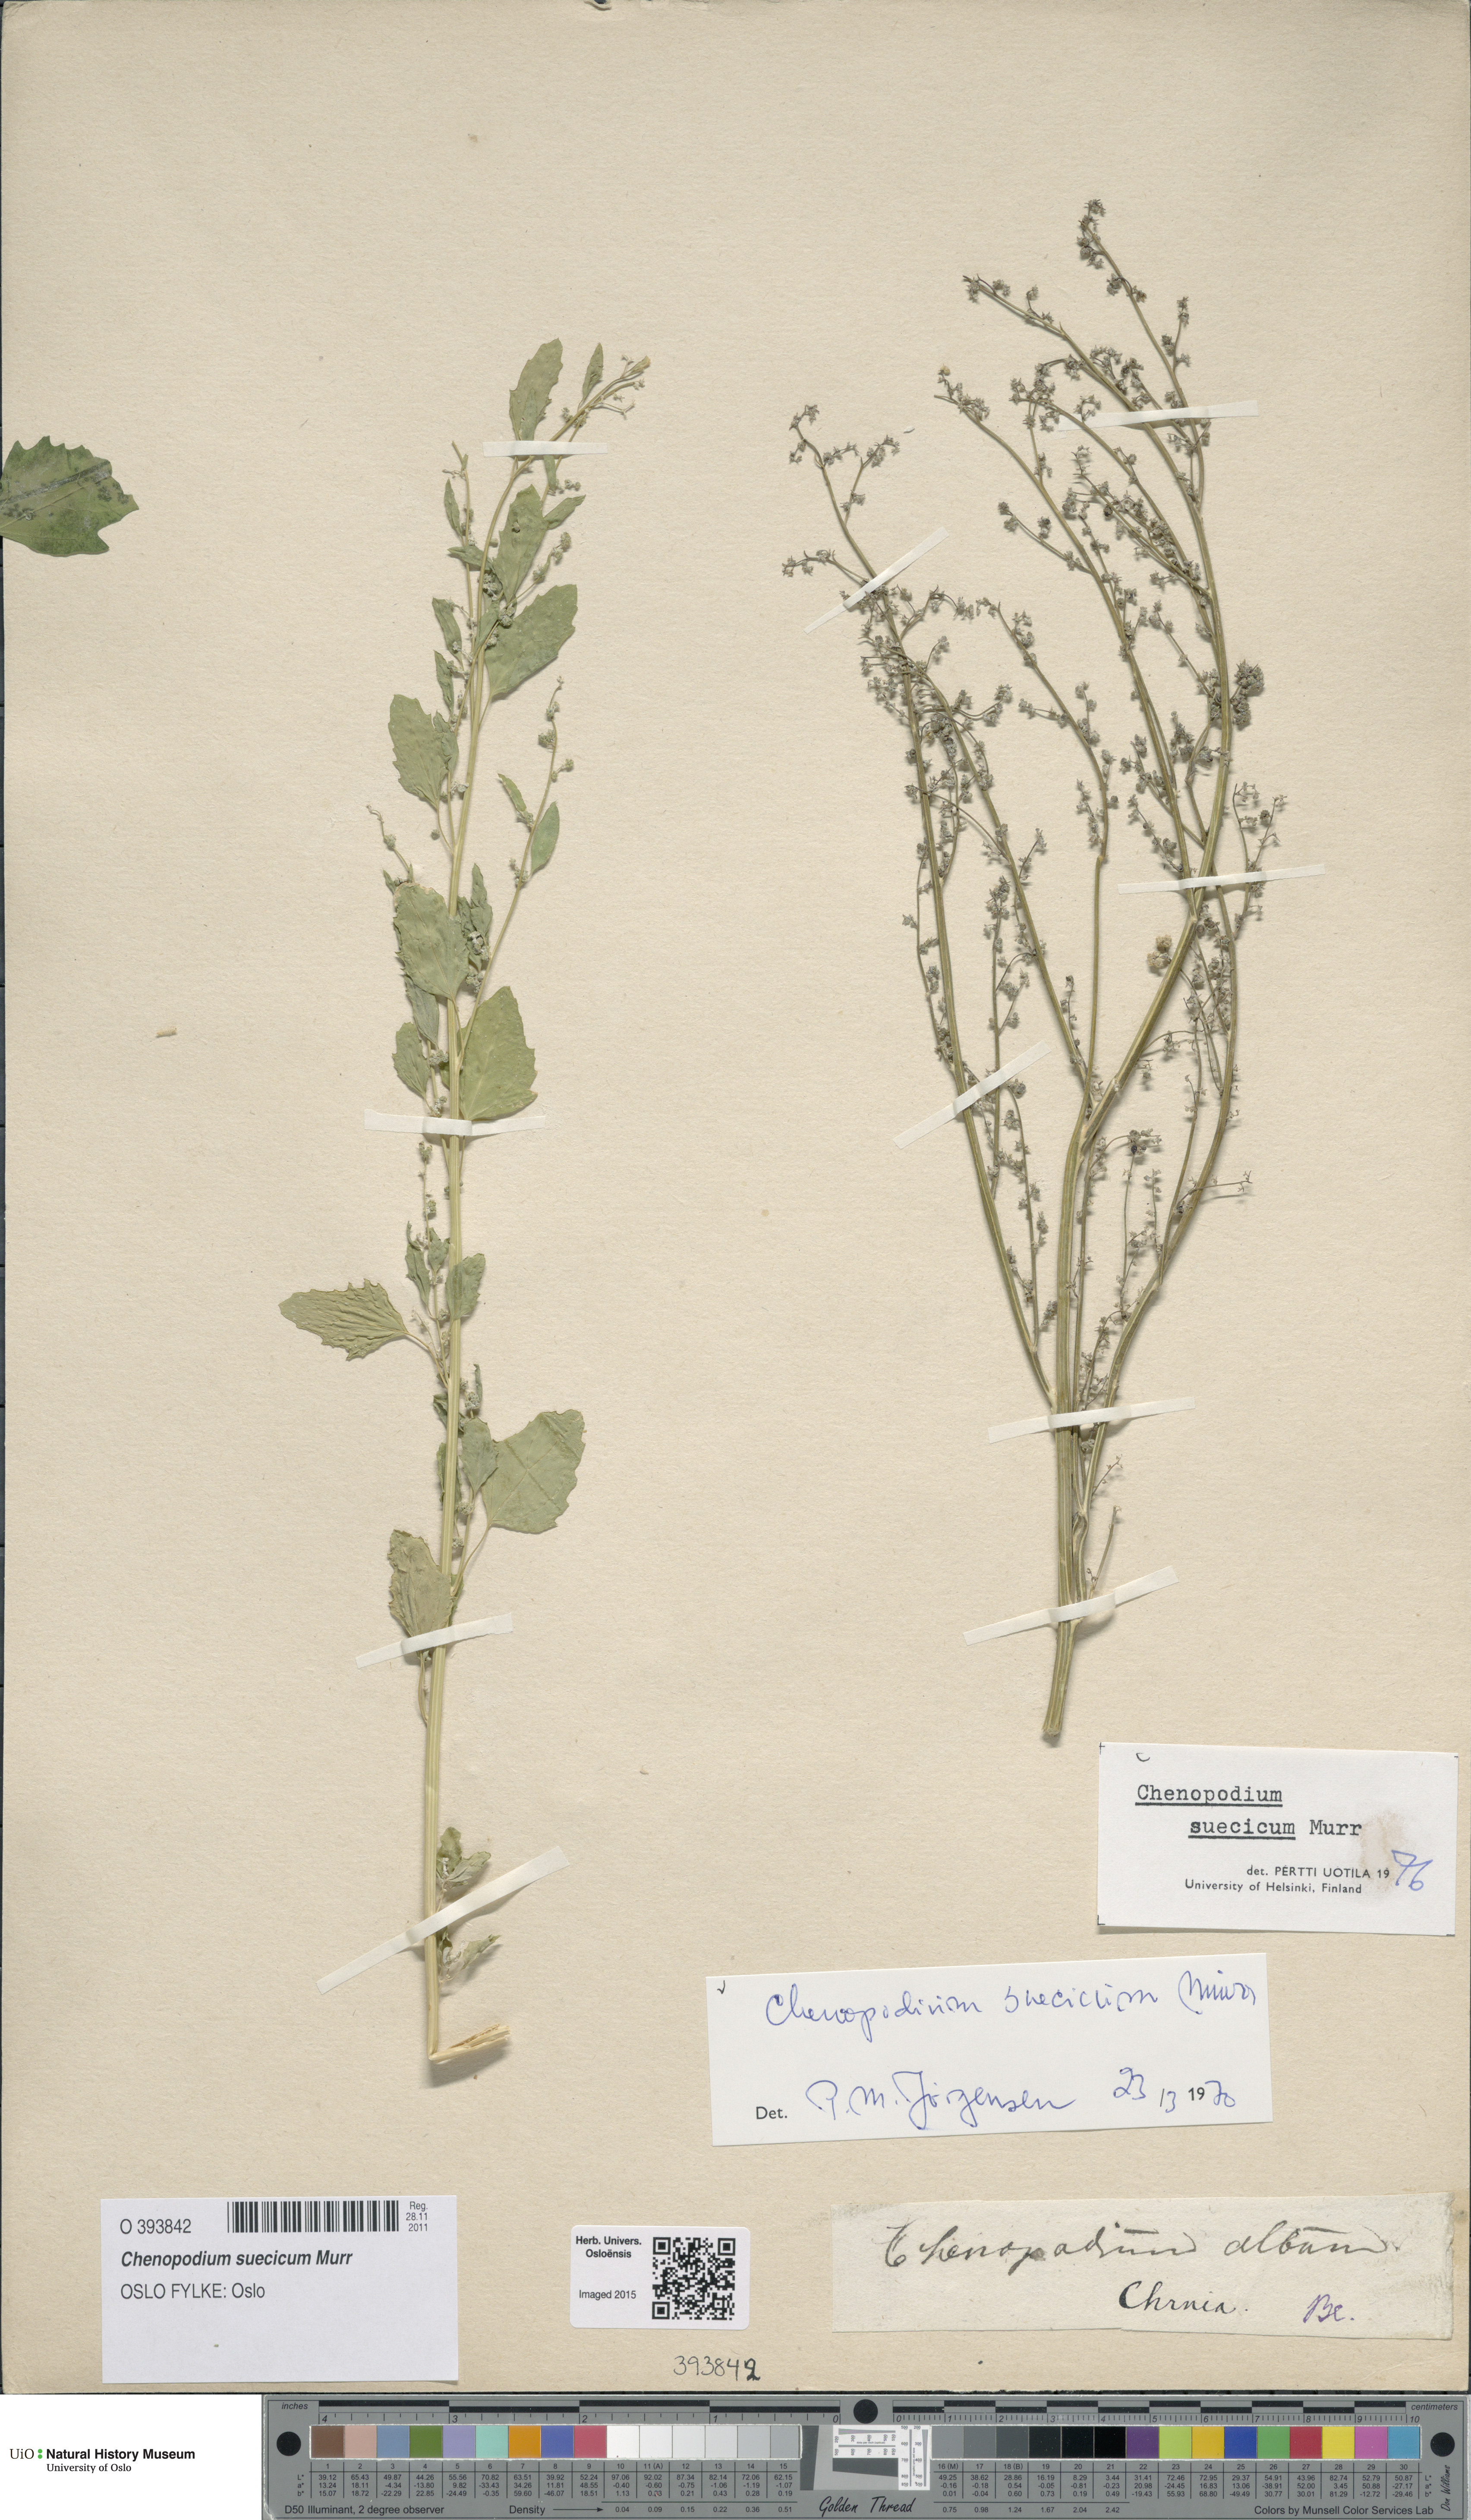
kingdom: Plantae
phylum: Tracheophyta
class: Magnoliopsida
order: Caryophyllales
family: Amaranthaceae
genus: Chenopodium
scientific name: Chenopodium suecicum
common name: Swedish goosefoot
